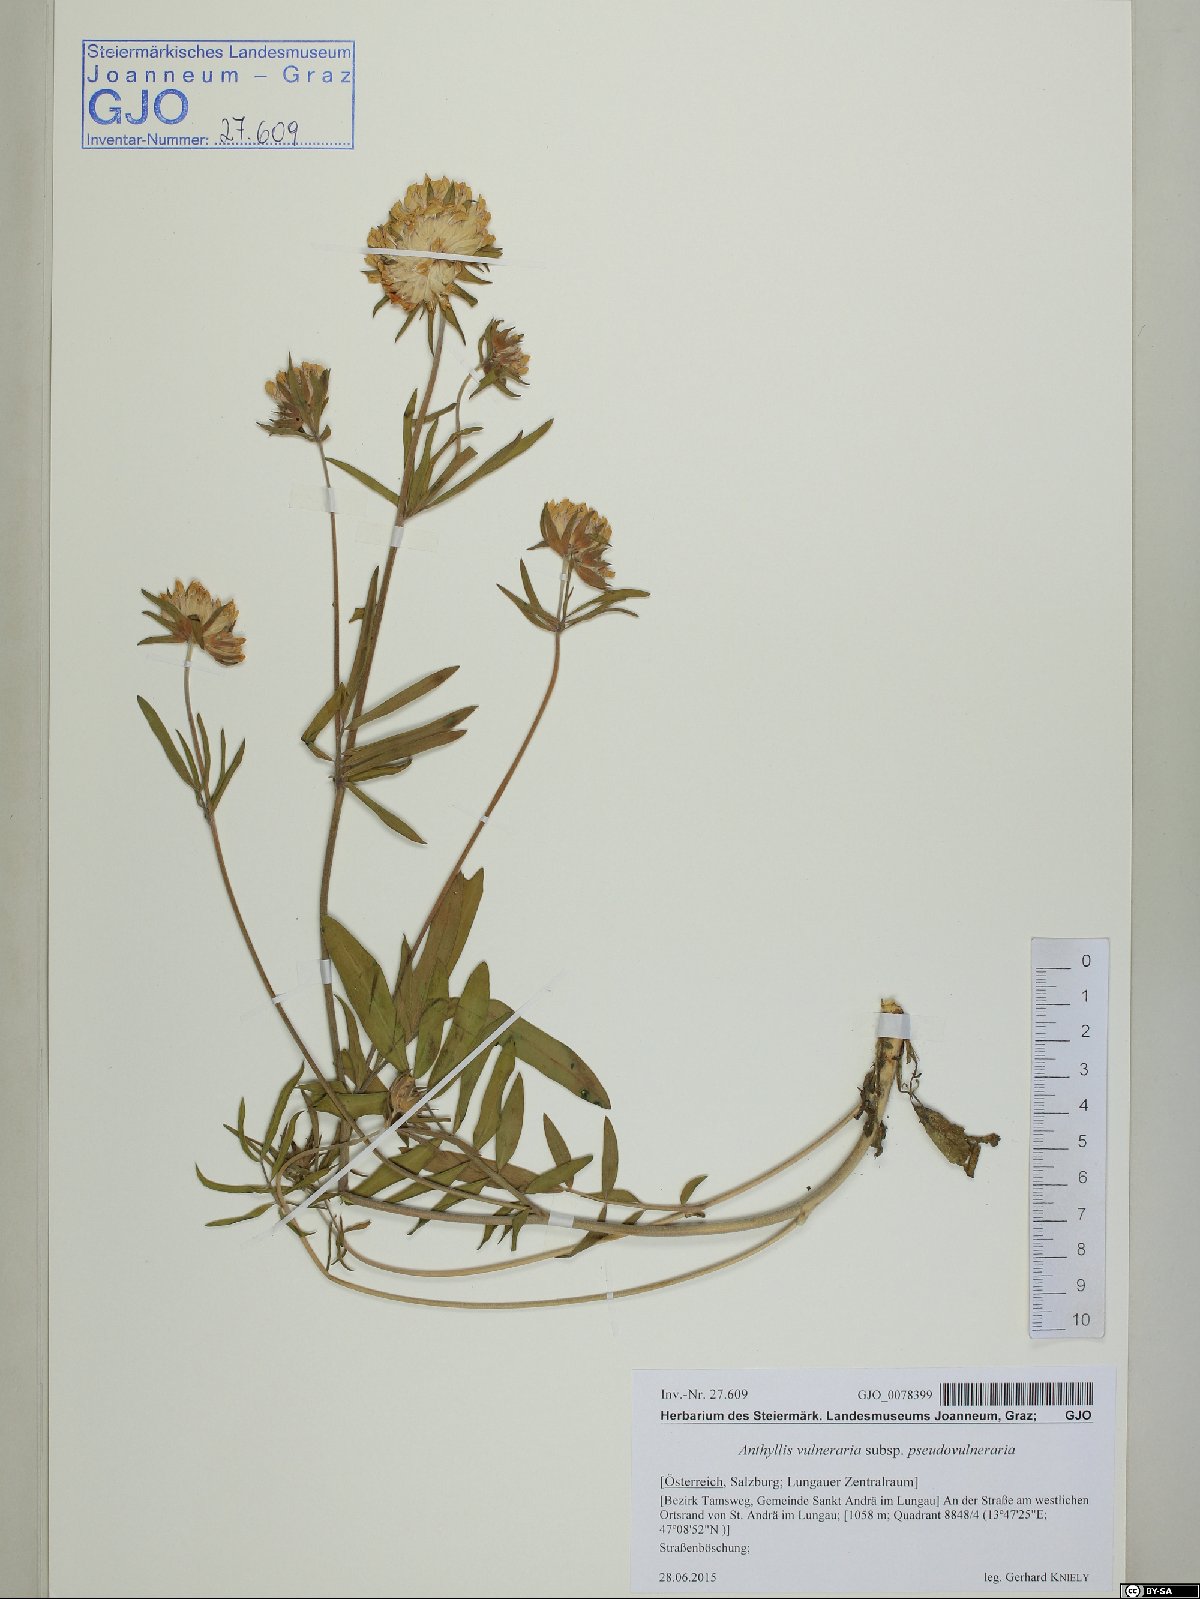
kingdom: Plantae
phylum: Tracheophyta
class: Magnoliopsida
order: Fabales
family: Fabaceae
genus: Anthyllis
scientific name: Anthyllis vulneraria
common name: Kidney vetch
